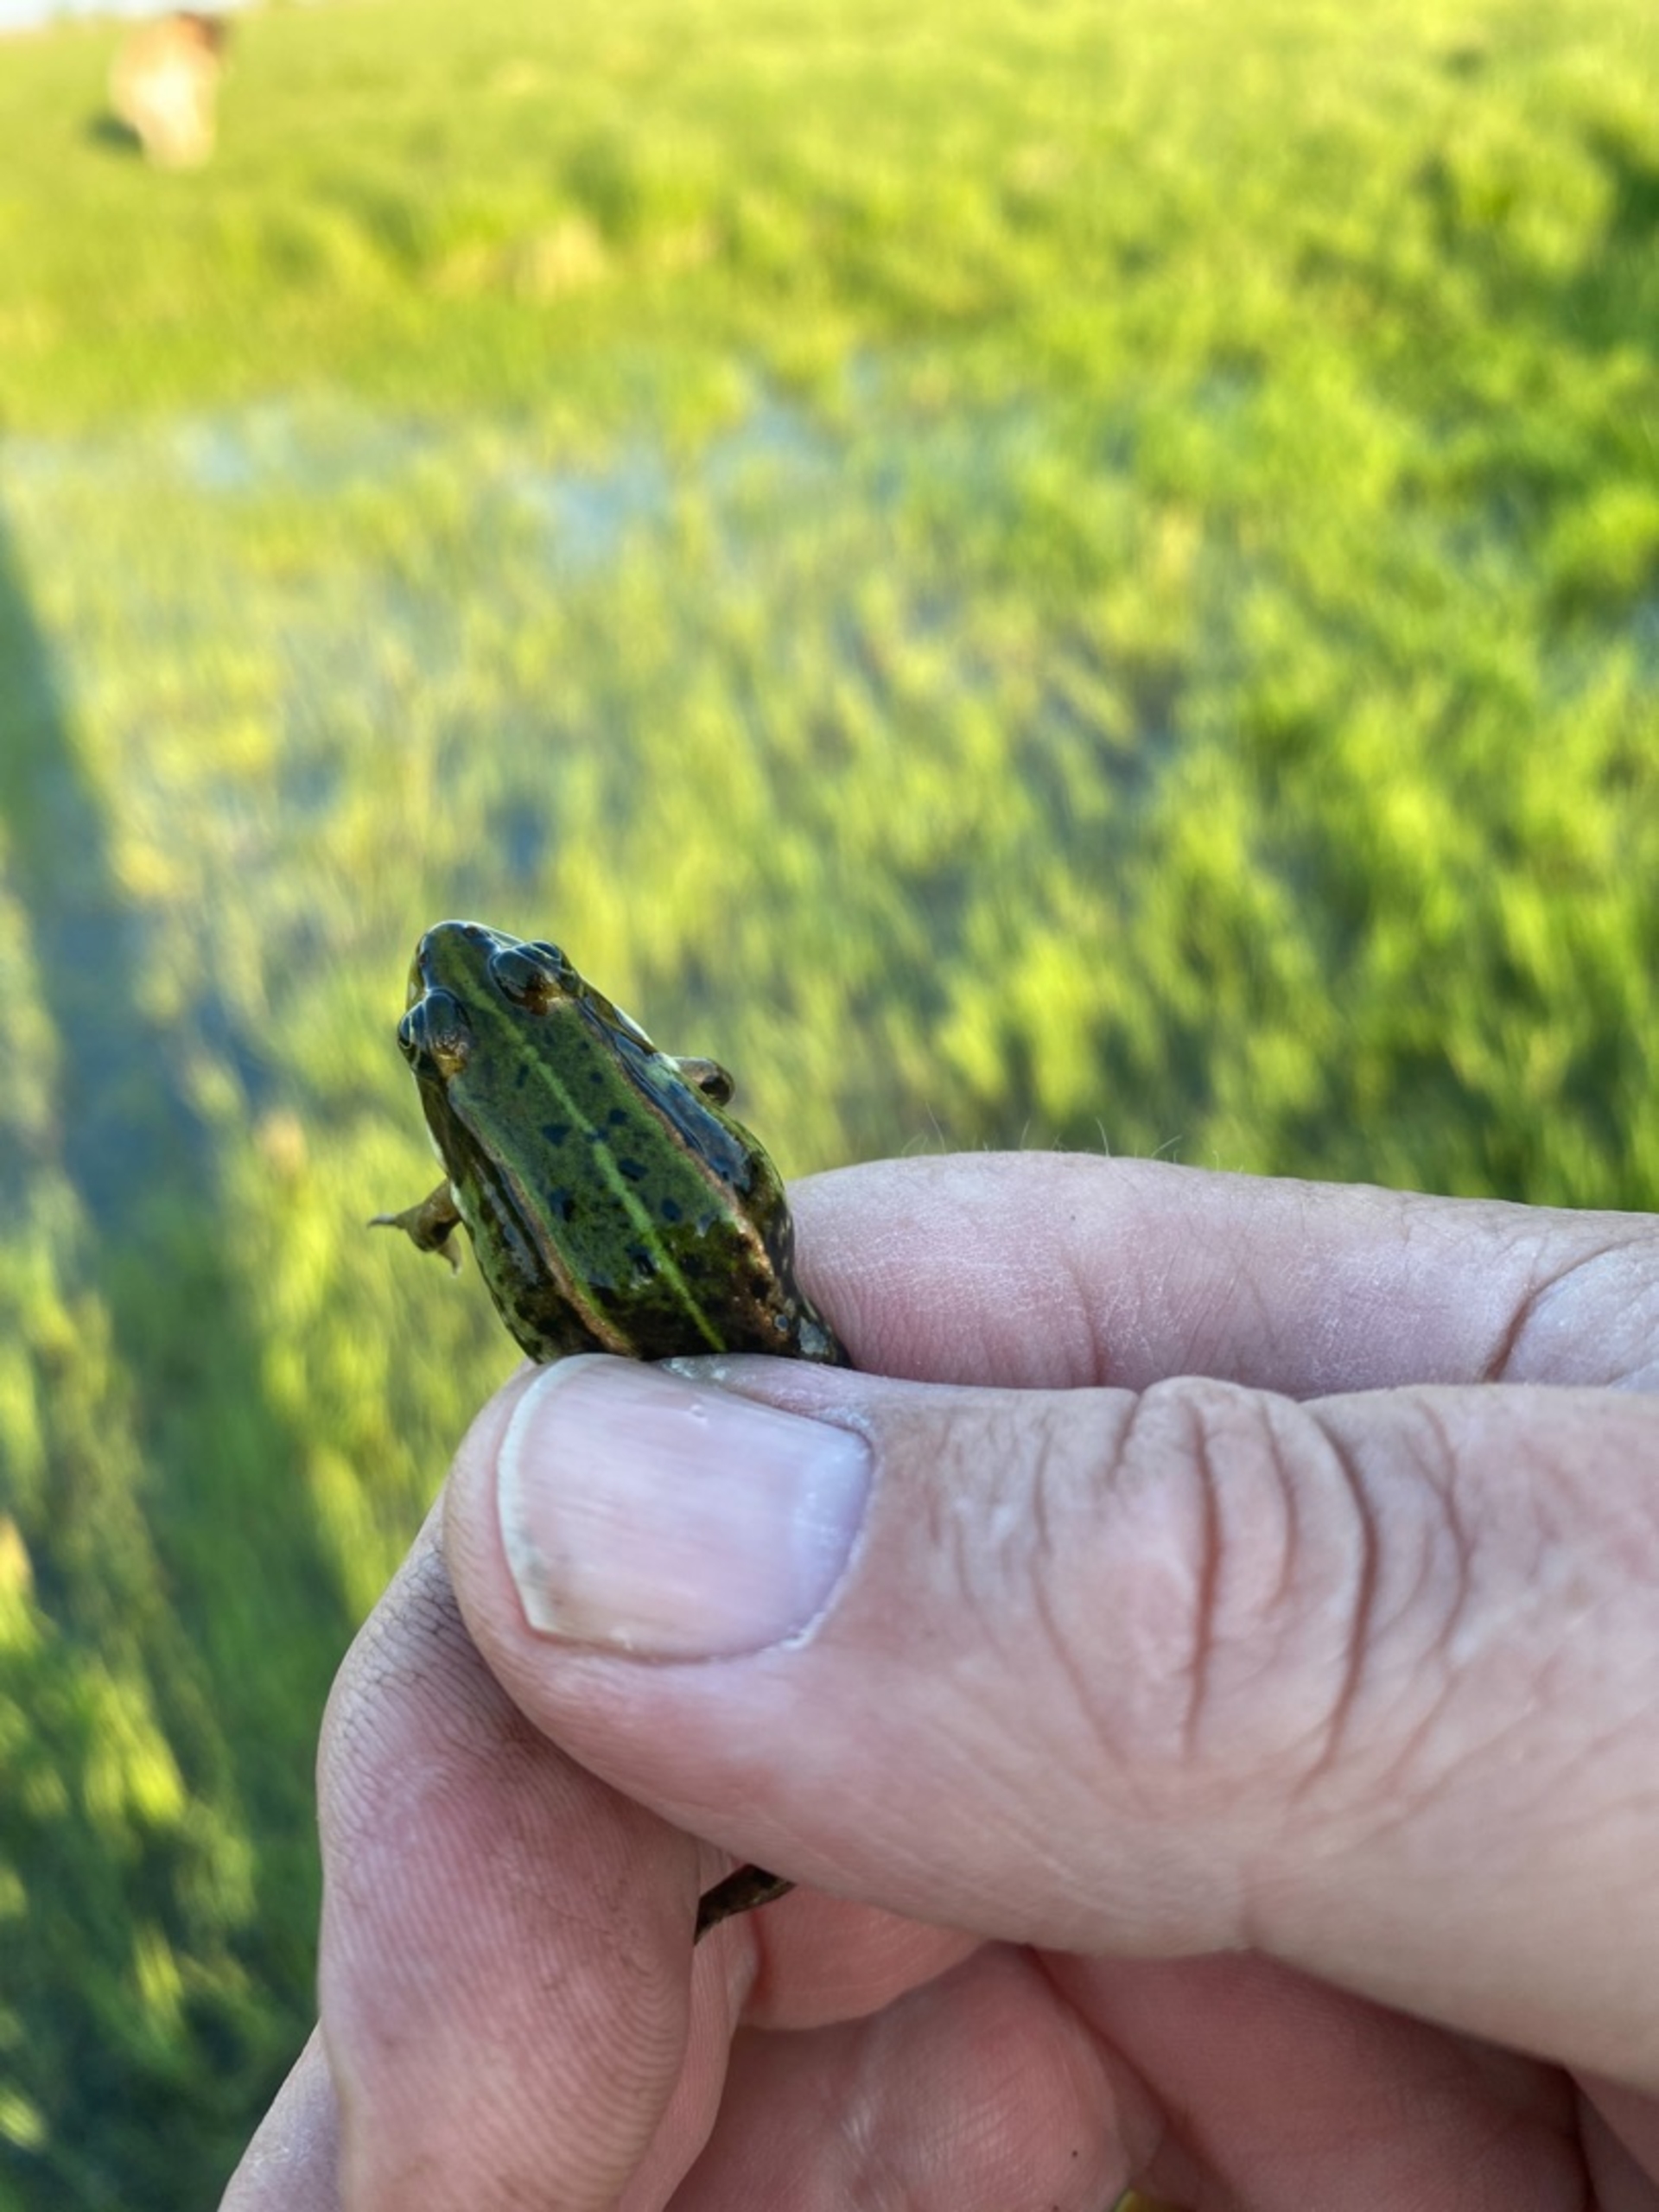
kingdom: Animalia
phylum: Chordata
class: Amphibia
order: Anura
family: Ranidae
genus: Pelophylax
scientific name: Pelophylax lessonae
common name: Grøn frø
